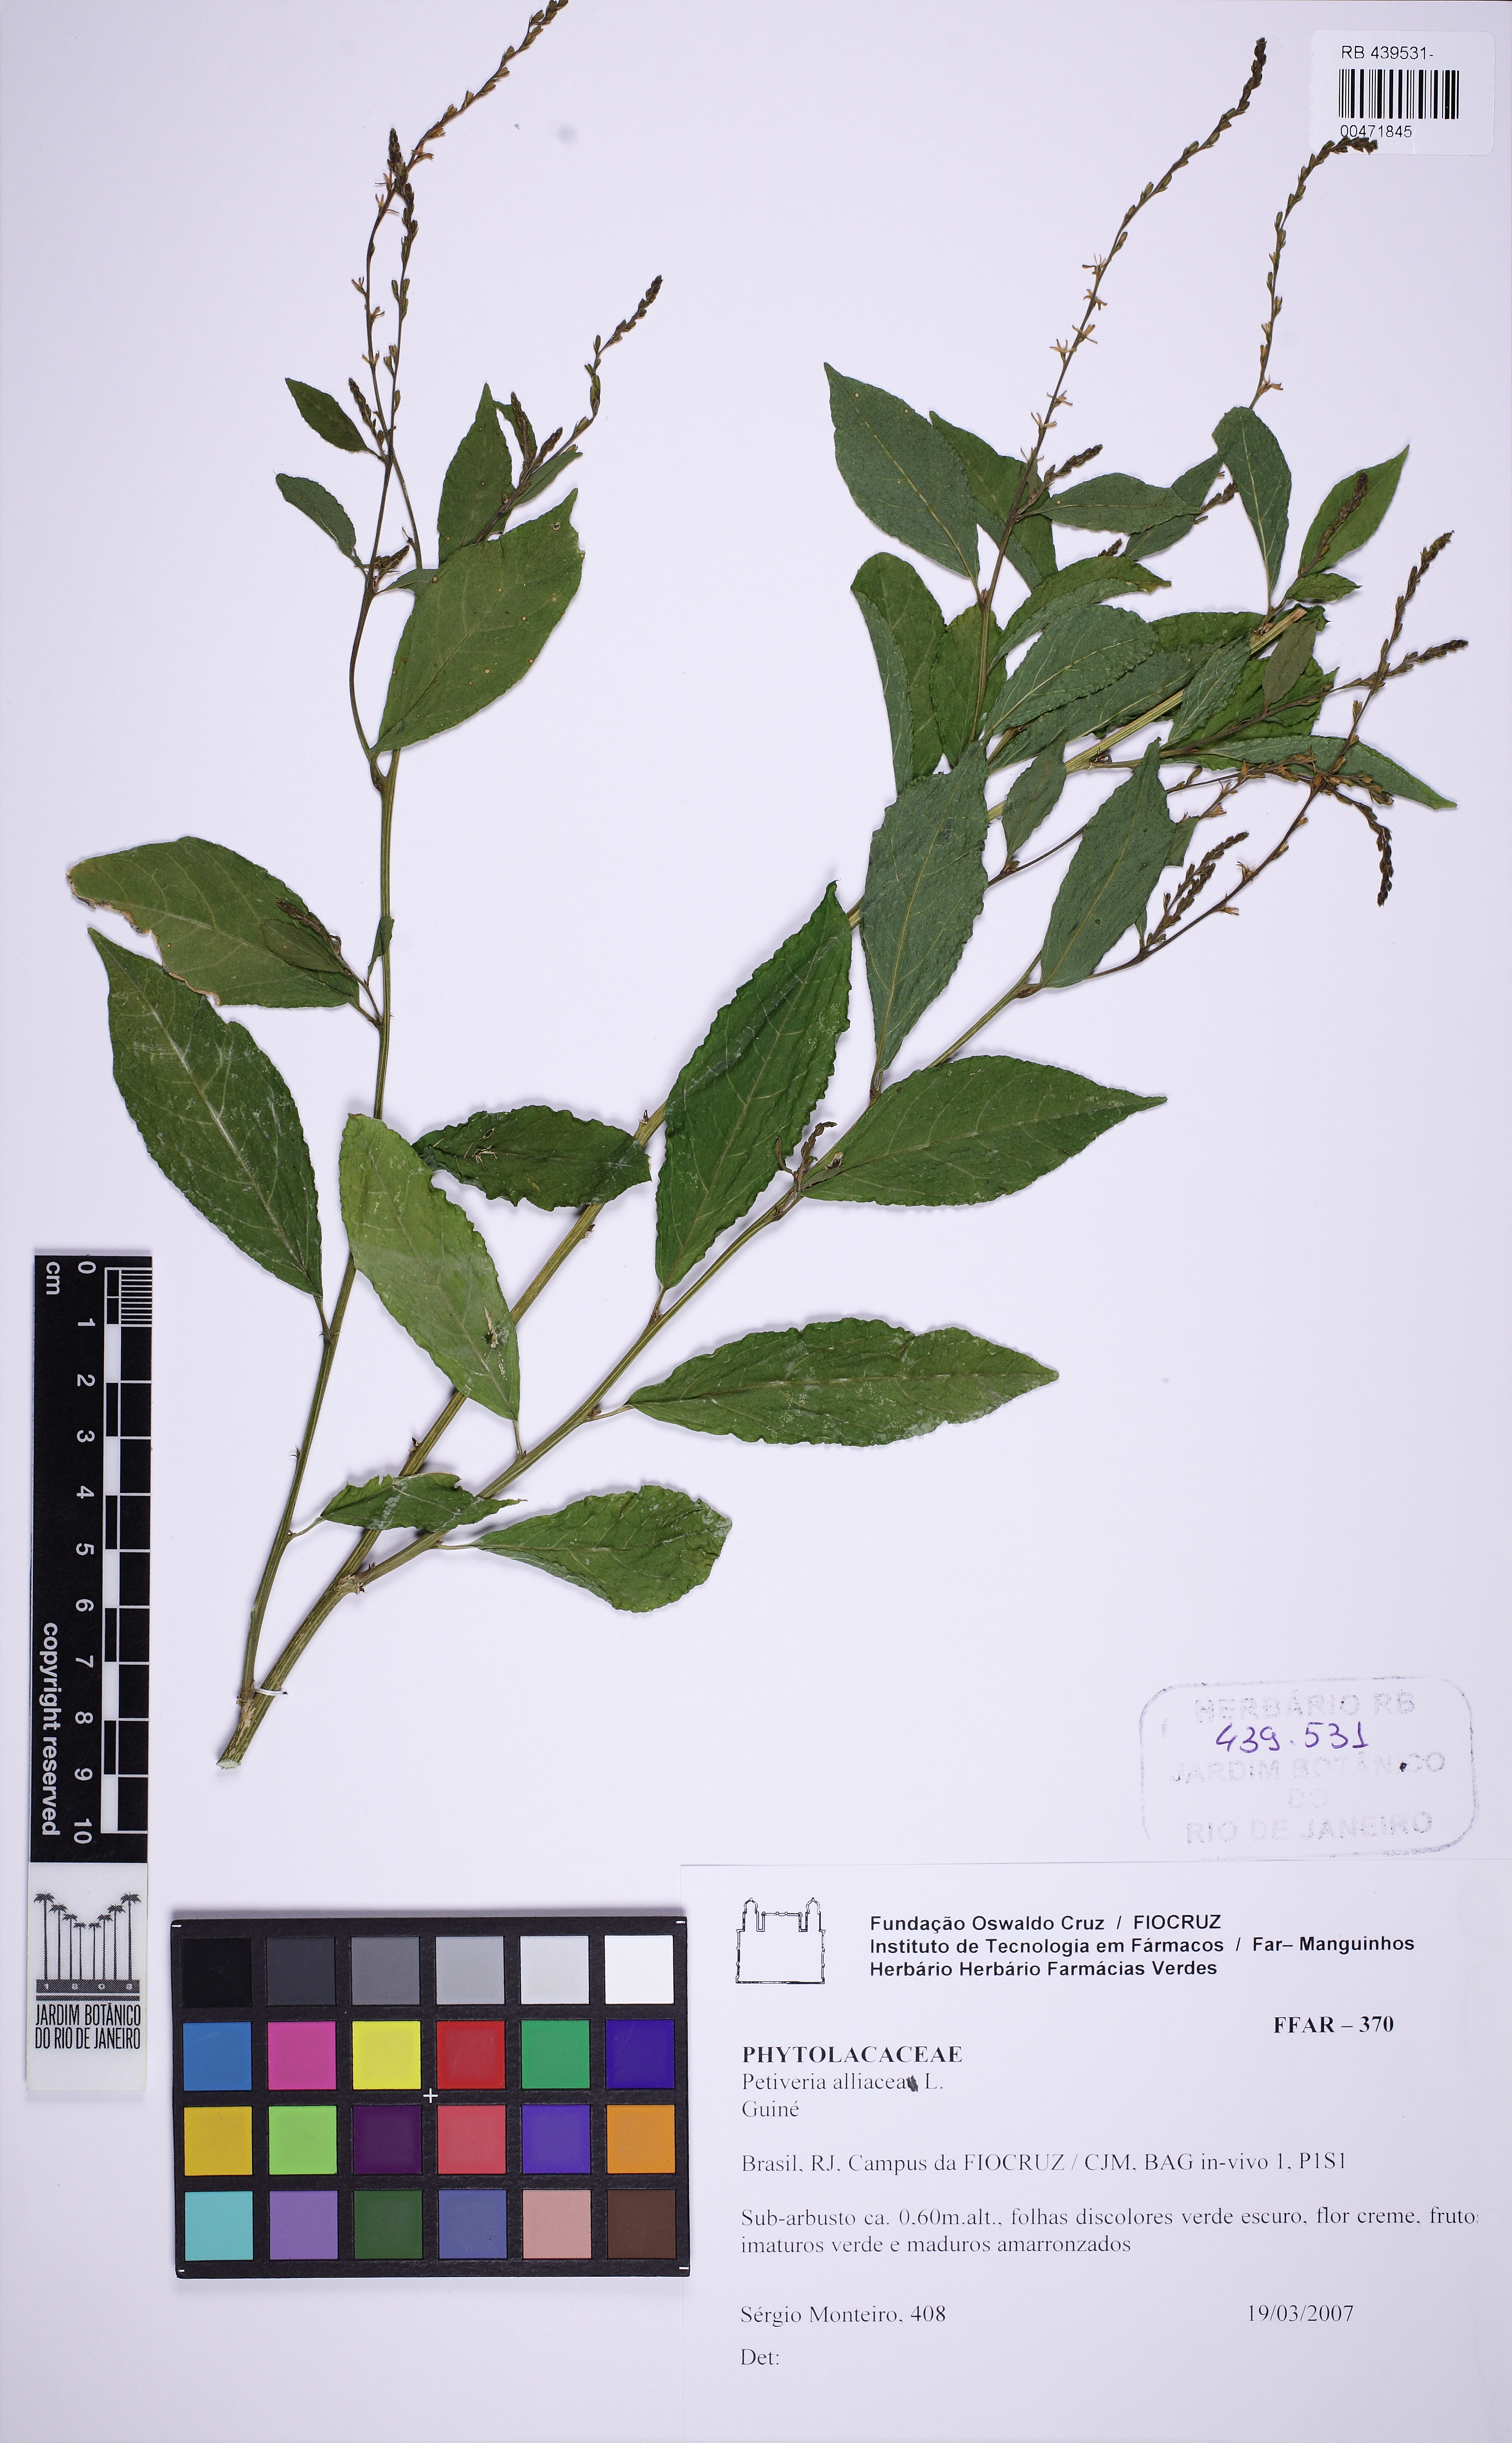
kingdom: Plantae
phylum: Tracheophyta
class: Magnoliopsida
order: Caryophyllales
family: Phytolaccaceae
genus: Petiveria
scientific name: Petiveria alliacea
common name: Garlicweed
